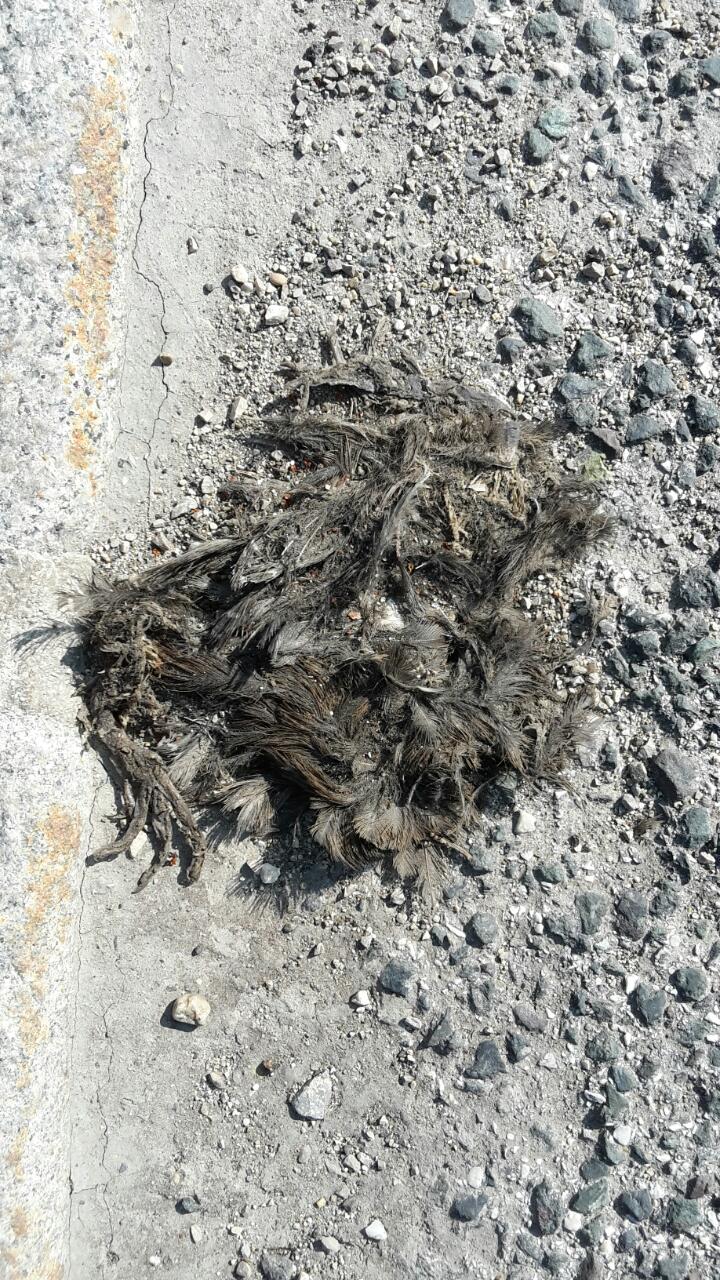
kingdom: Animalia
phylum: Chordata
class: Aves
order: Passeriformes
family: Turdidae
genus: Turdus
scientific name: Turdus merula
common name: Common blackbird
